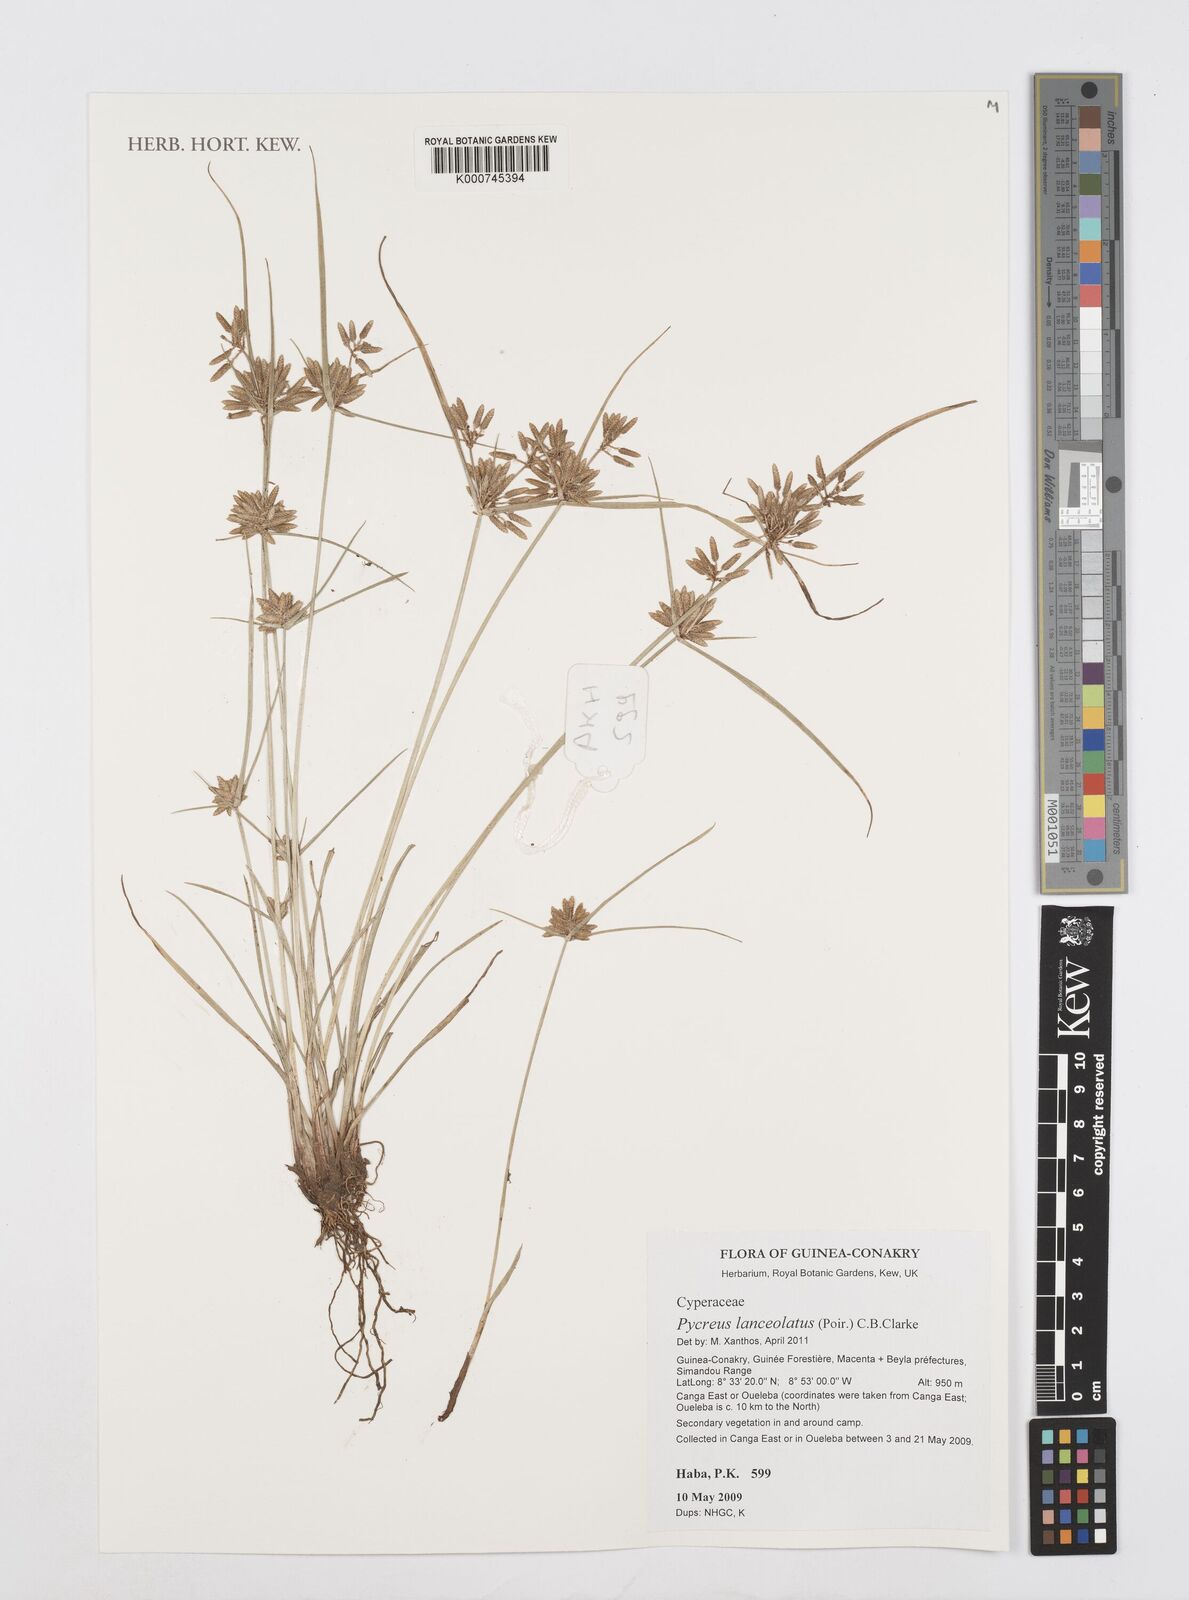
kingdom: Plantae
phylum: Tracheophyta
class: Liliopsida
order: Poales
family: Cyperaceae
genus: Cyperus
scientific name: Cyperus
